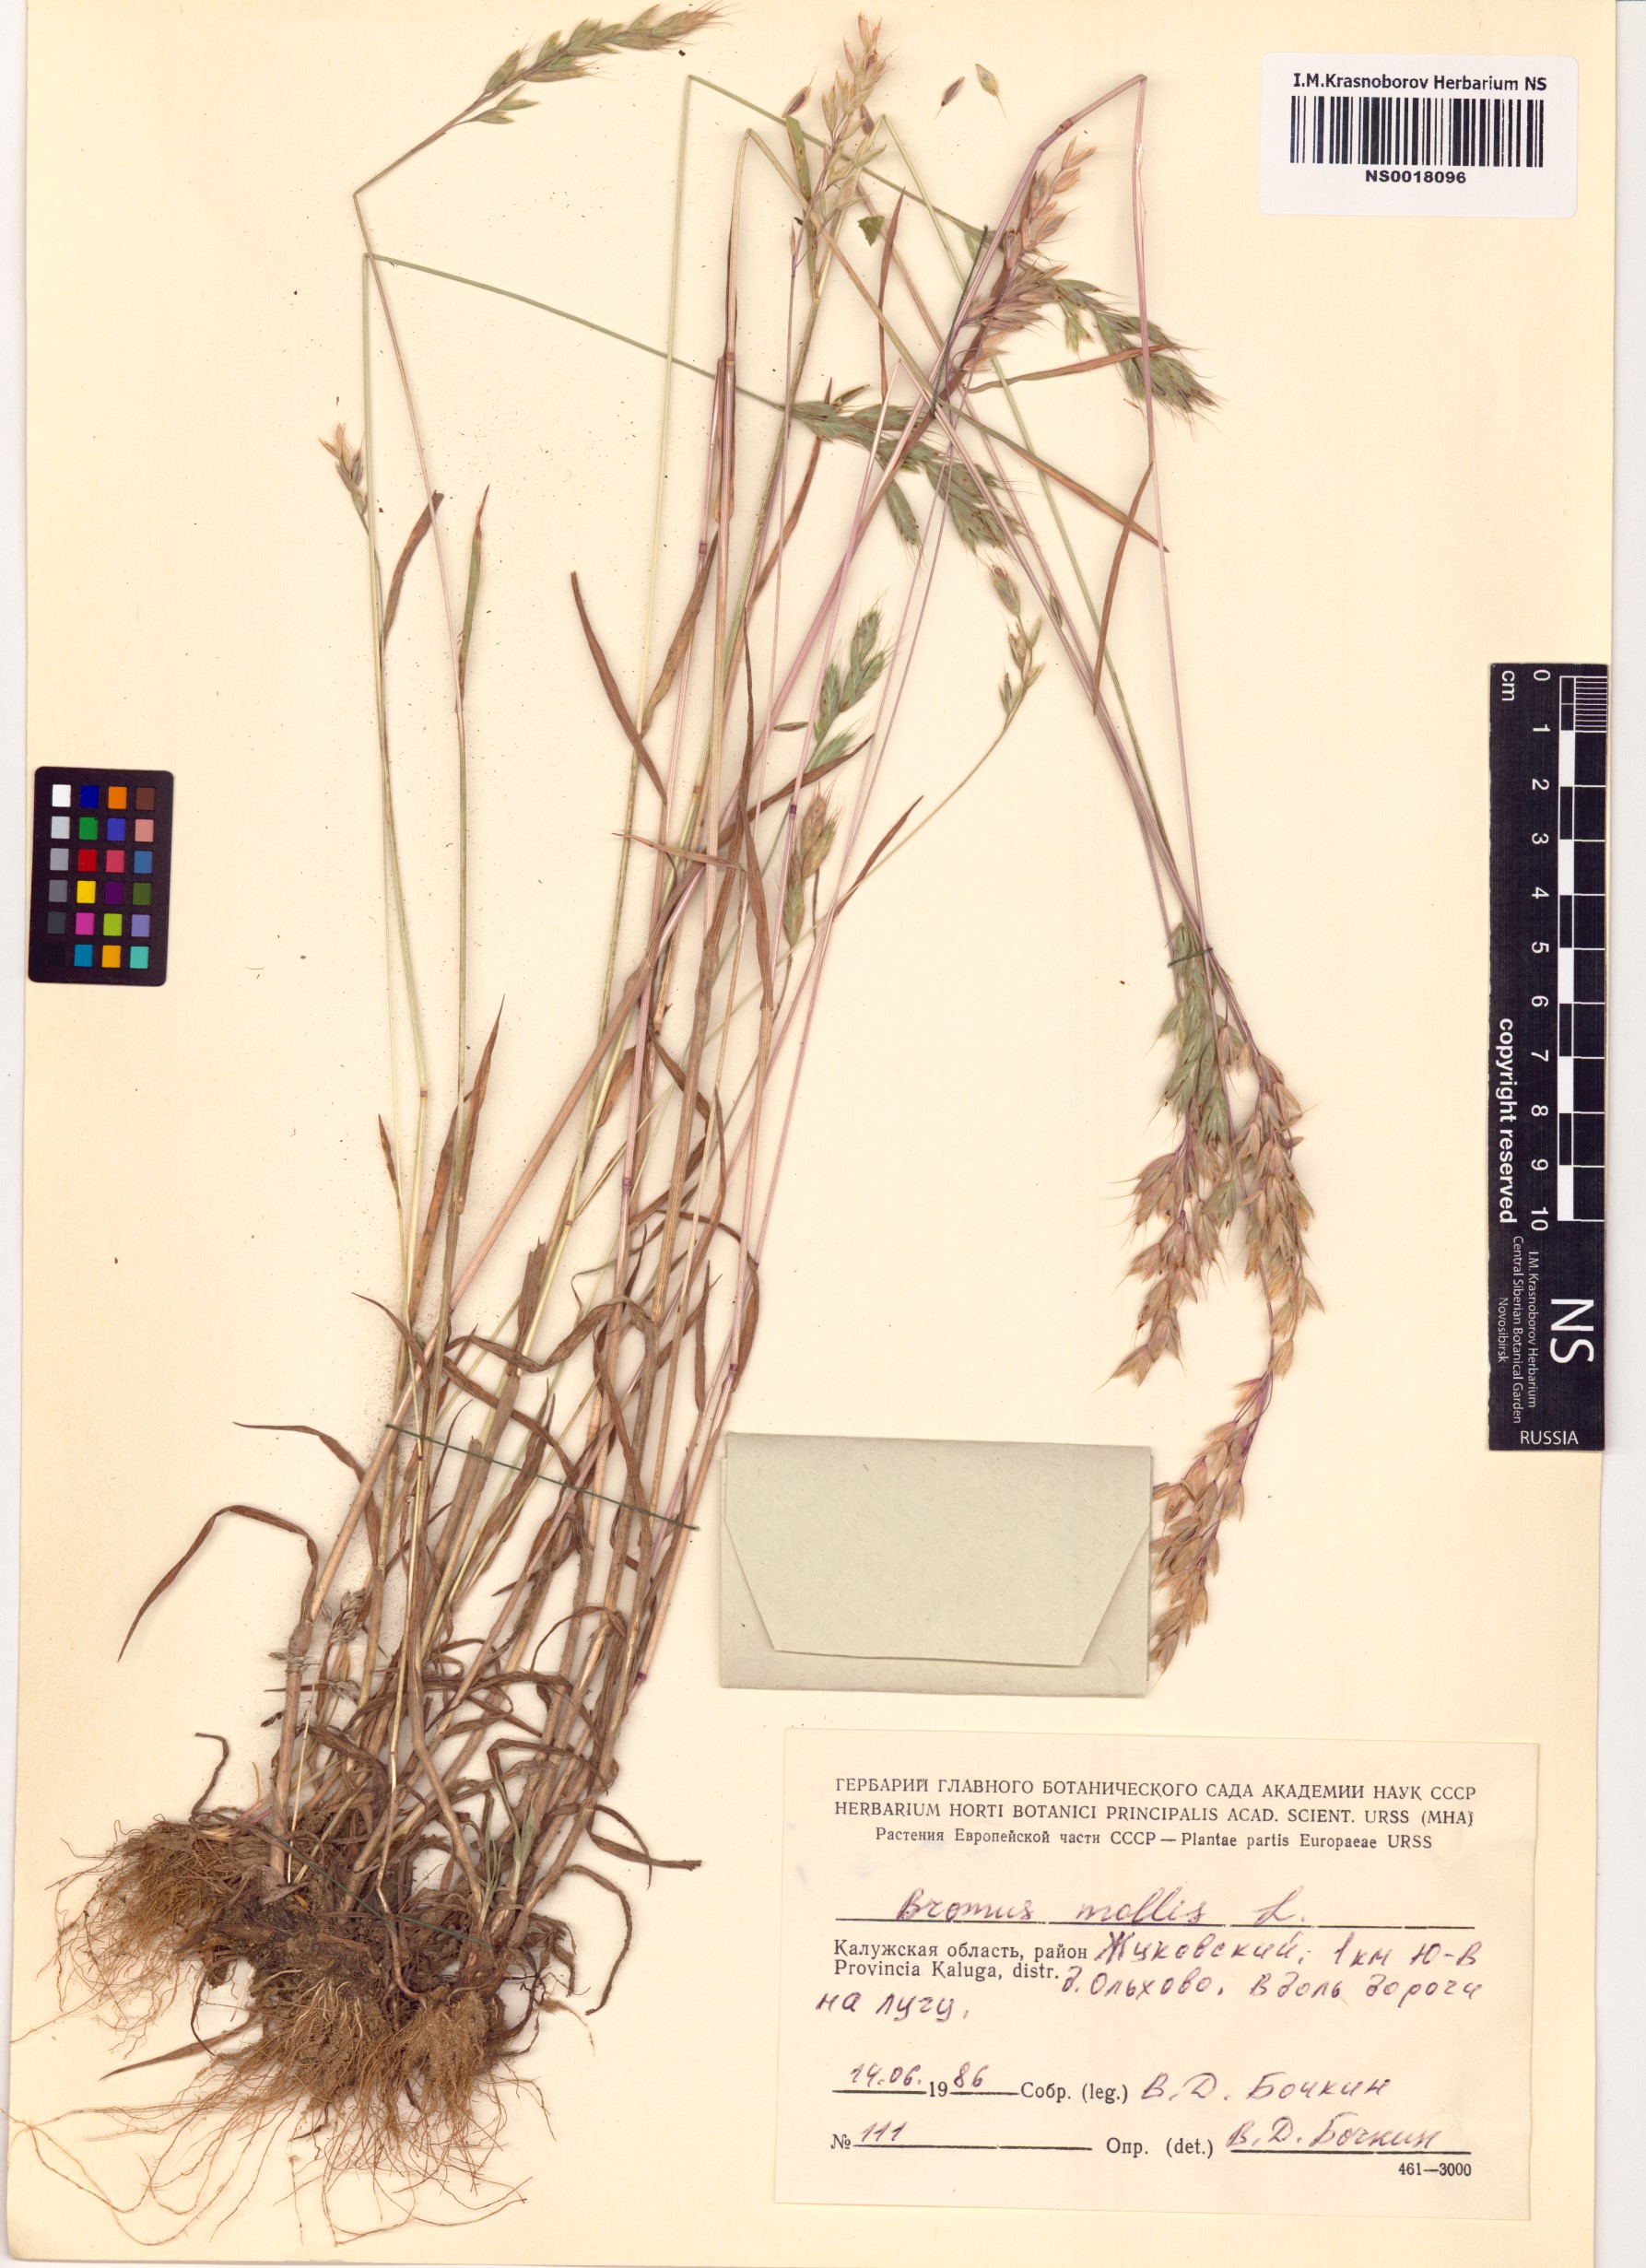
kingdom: Plantae
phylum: Tracheophyta
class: Liliopsida
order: Poales
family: Poaceae
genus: Bromus
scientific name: Bromus hordeaceus
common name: Soft brome
